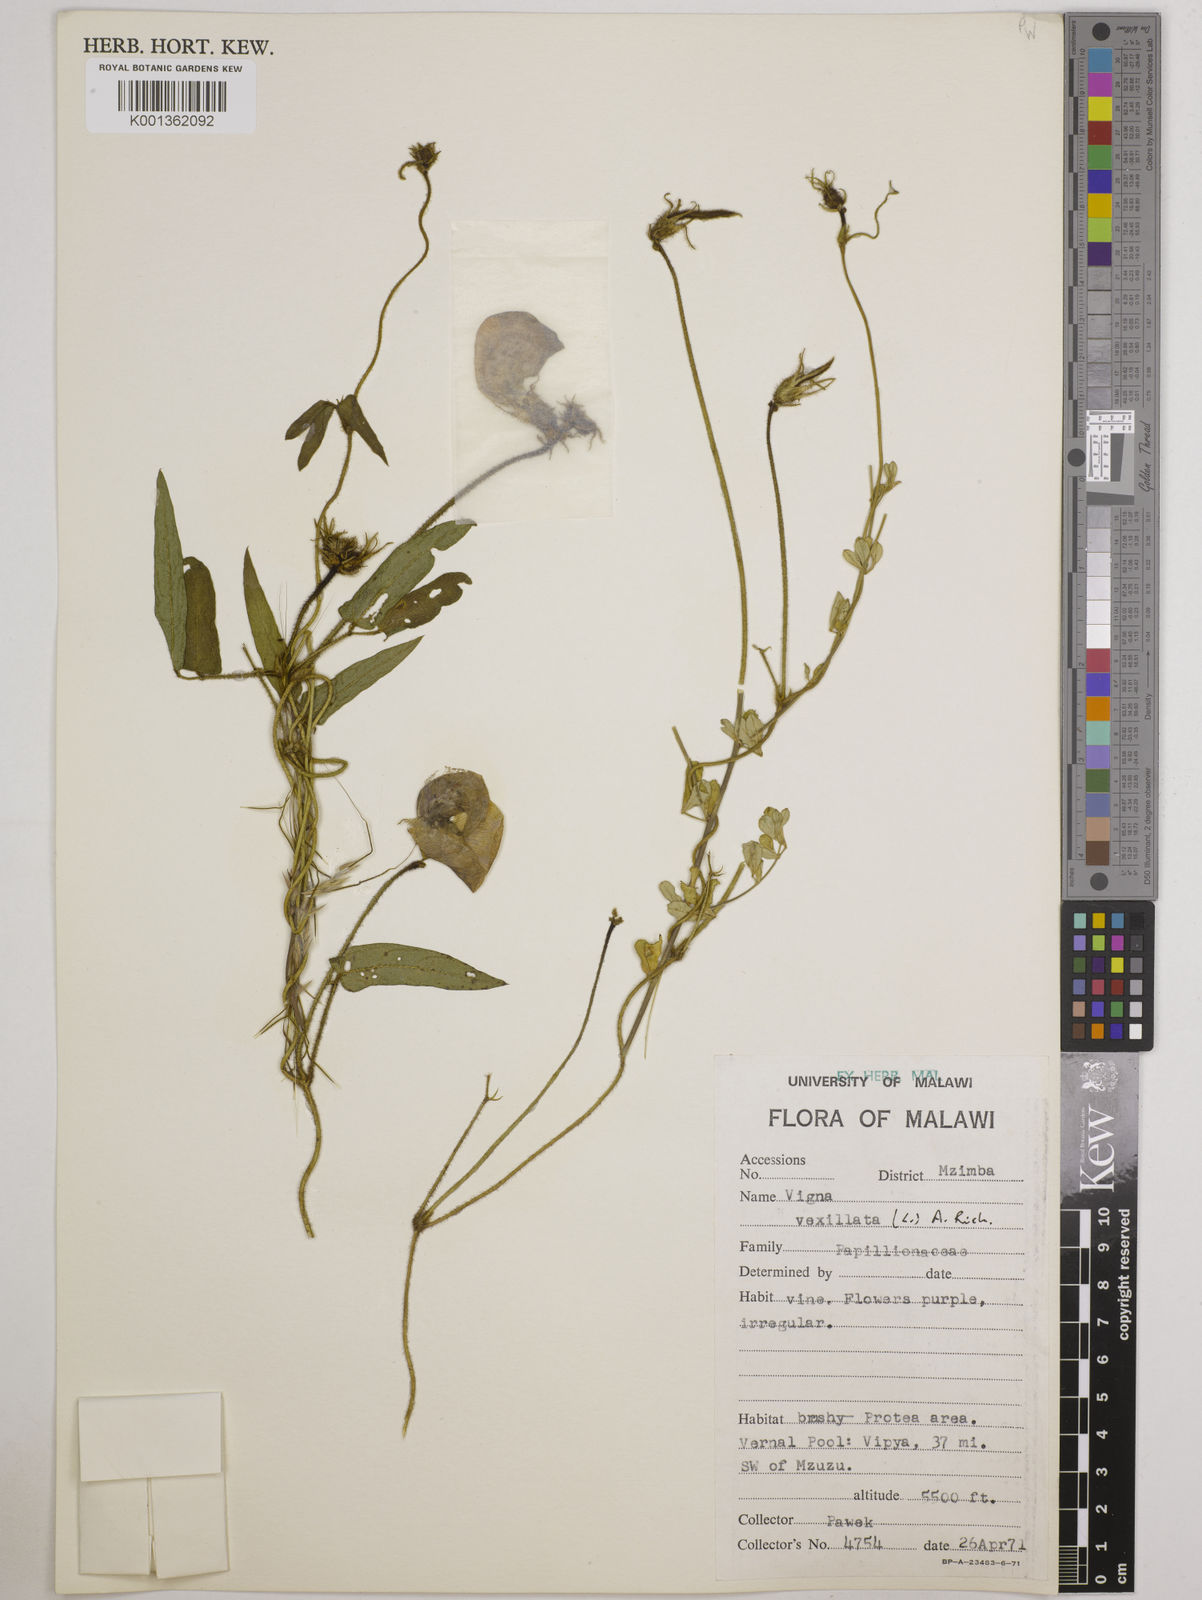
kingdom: Plantae
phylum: Tracheophyta
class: Magnoliopsida
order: Fabales
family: Fabaceae
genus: Vigna
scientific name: Vigna vexillata
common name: Zombi pea
